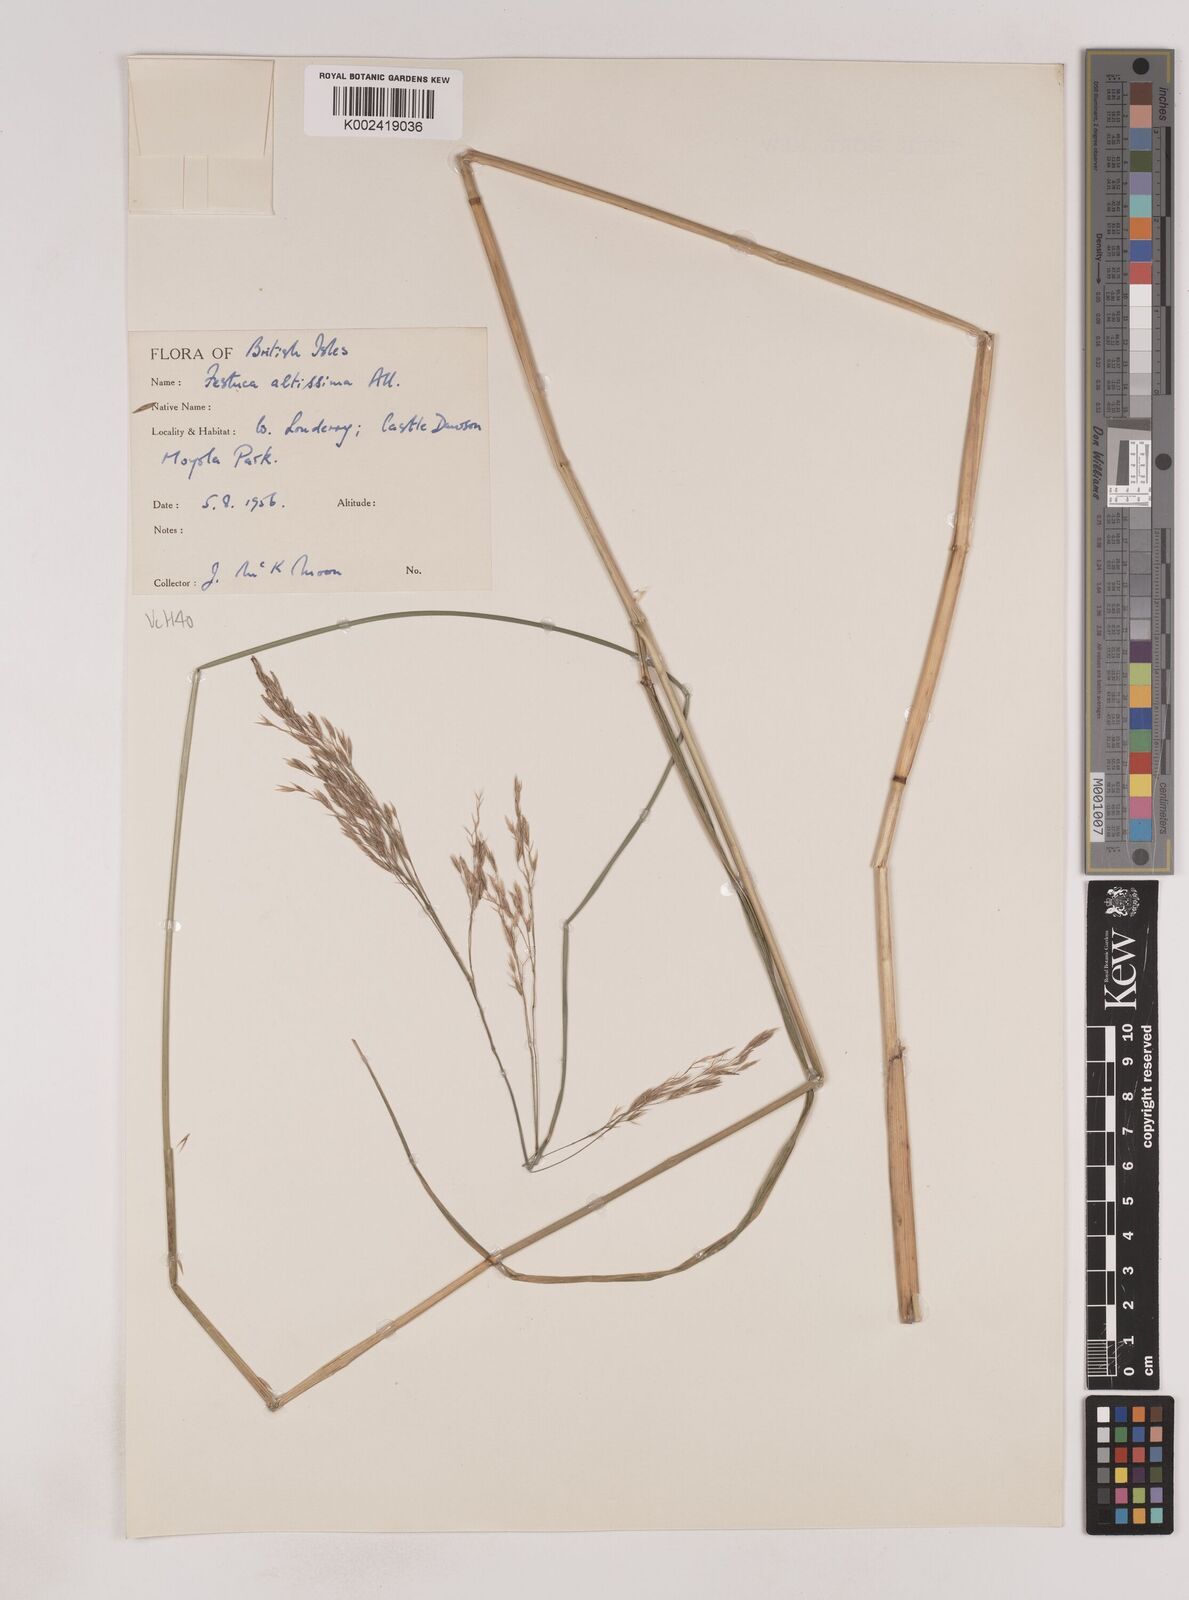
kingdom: Plantae
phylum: Tracheophyta
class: Liliopsida
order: Poales
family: Poaceae
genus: Festuca
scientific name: Festuca drymeja
